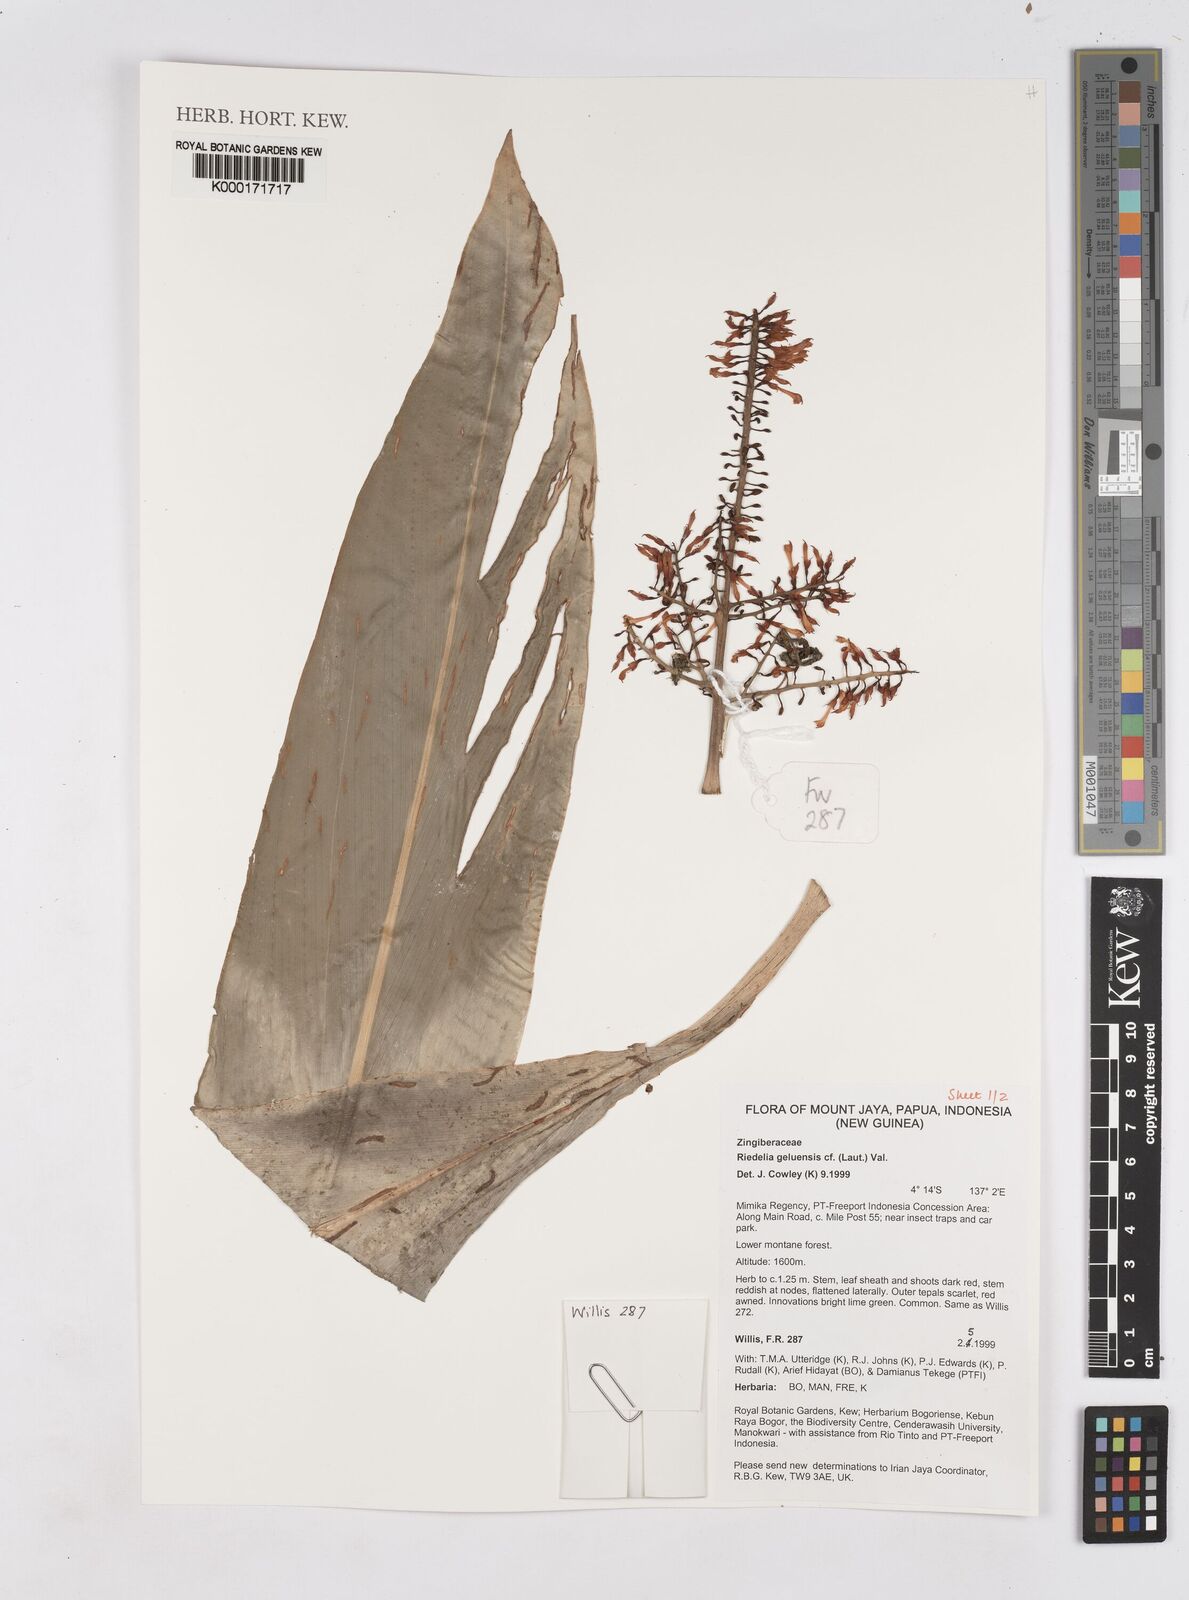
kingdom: Plantae
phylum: Tracheophyta
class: Liliopsida
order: Zingiberales
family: Zingiberaceae
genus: Riedelia
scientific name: Riedelia geluensis
